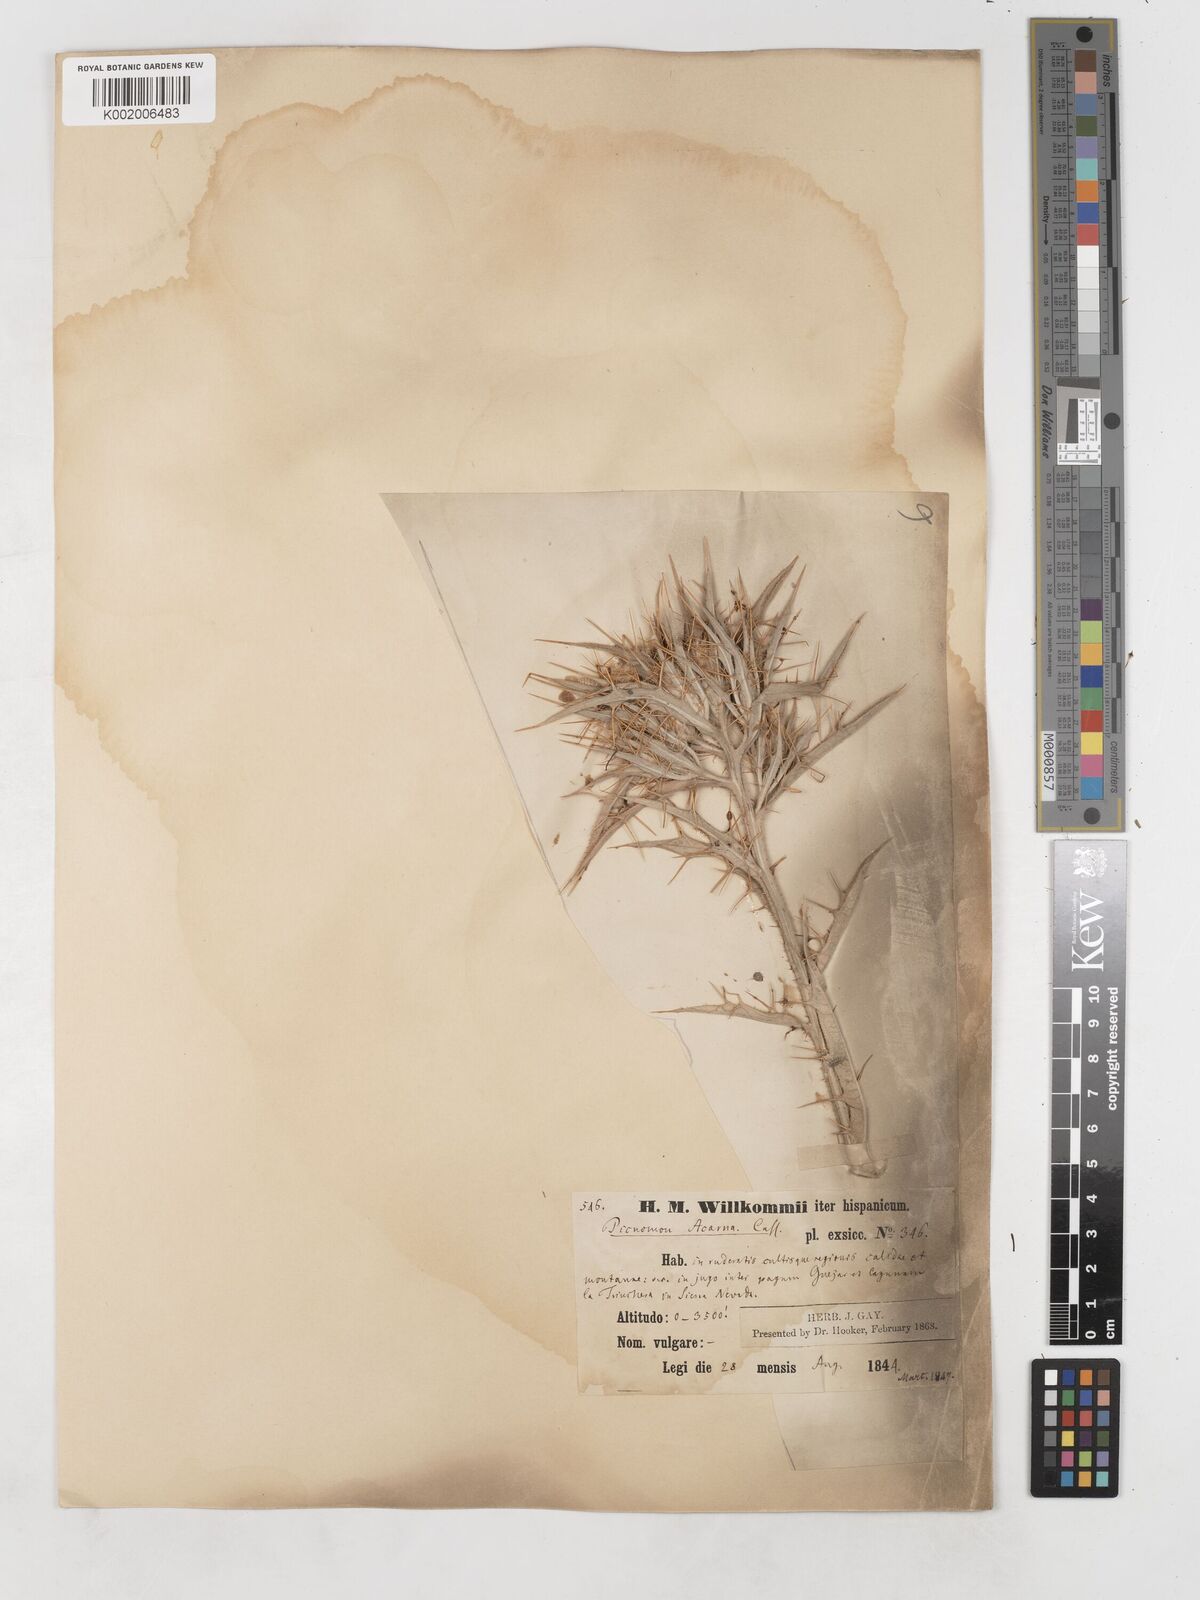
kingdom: Plantae
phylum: Tracheophyta
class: Magnoliopsida
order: Asterales
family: Asteraceae
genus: Picnomon
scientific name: Picnomon acarna
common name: Soldier thistle
